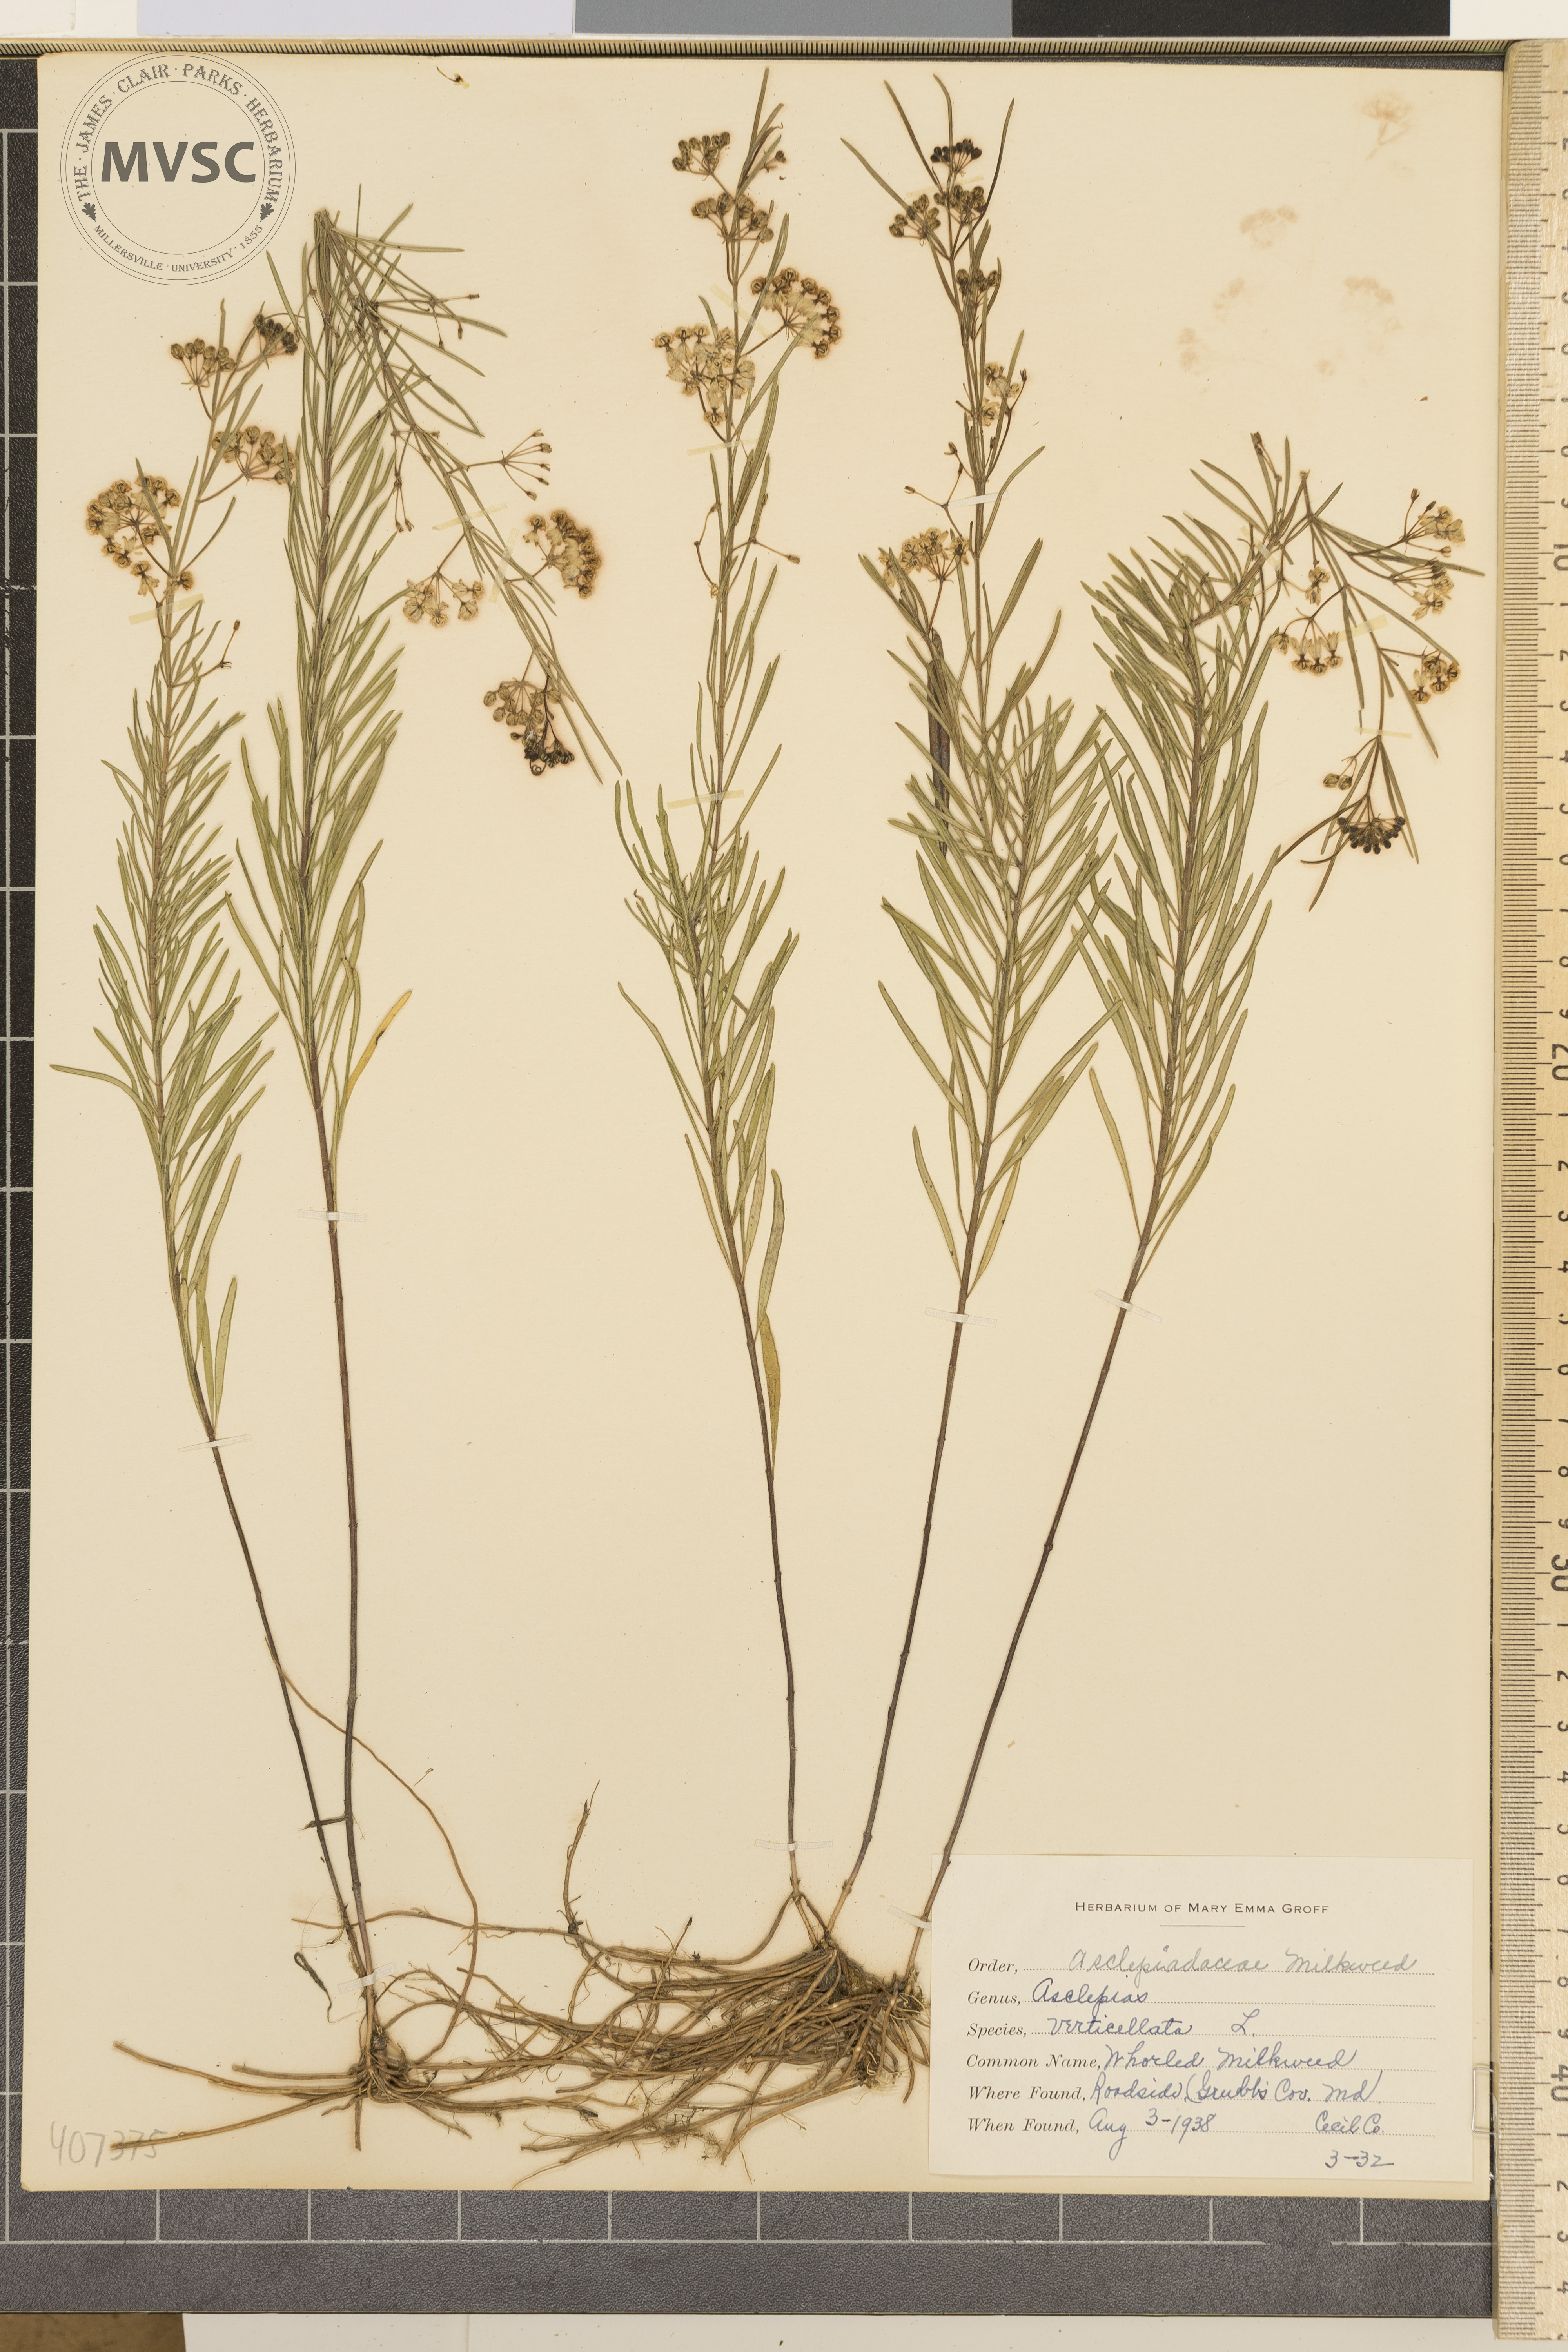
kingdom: Plantae
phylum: Tracheophyta
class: Magnoliopsida
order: Gentianales
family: Apocynaceae
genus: Asclepias
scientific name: Asclepias verticillata
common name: Whorled Milkweed
